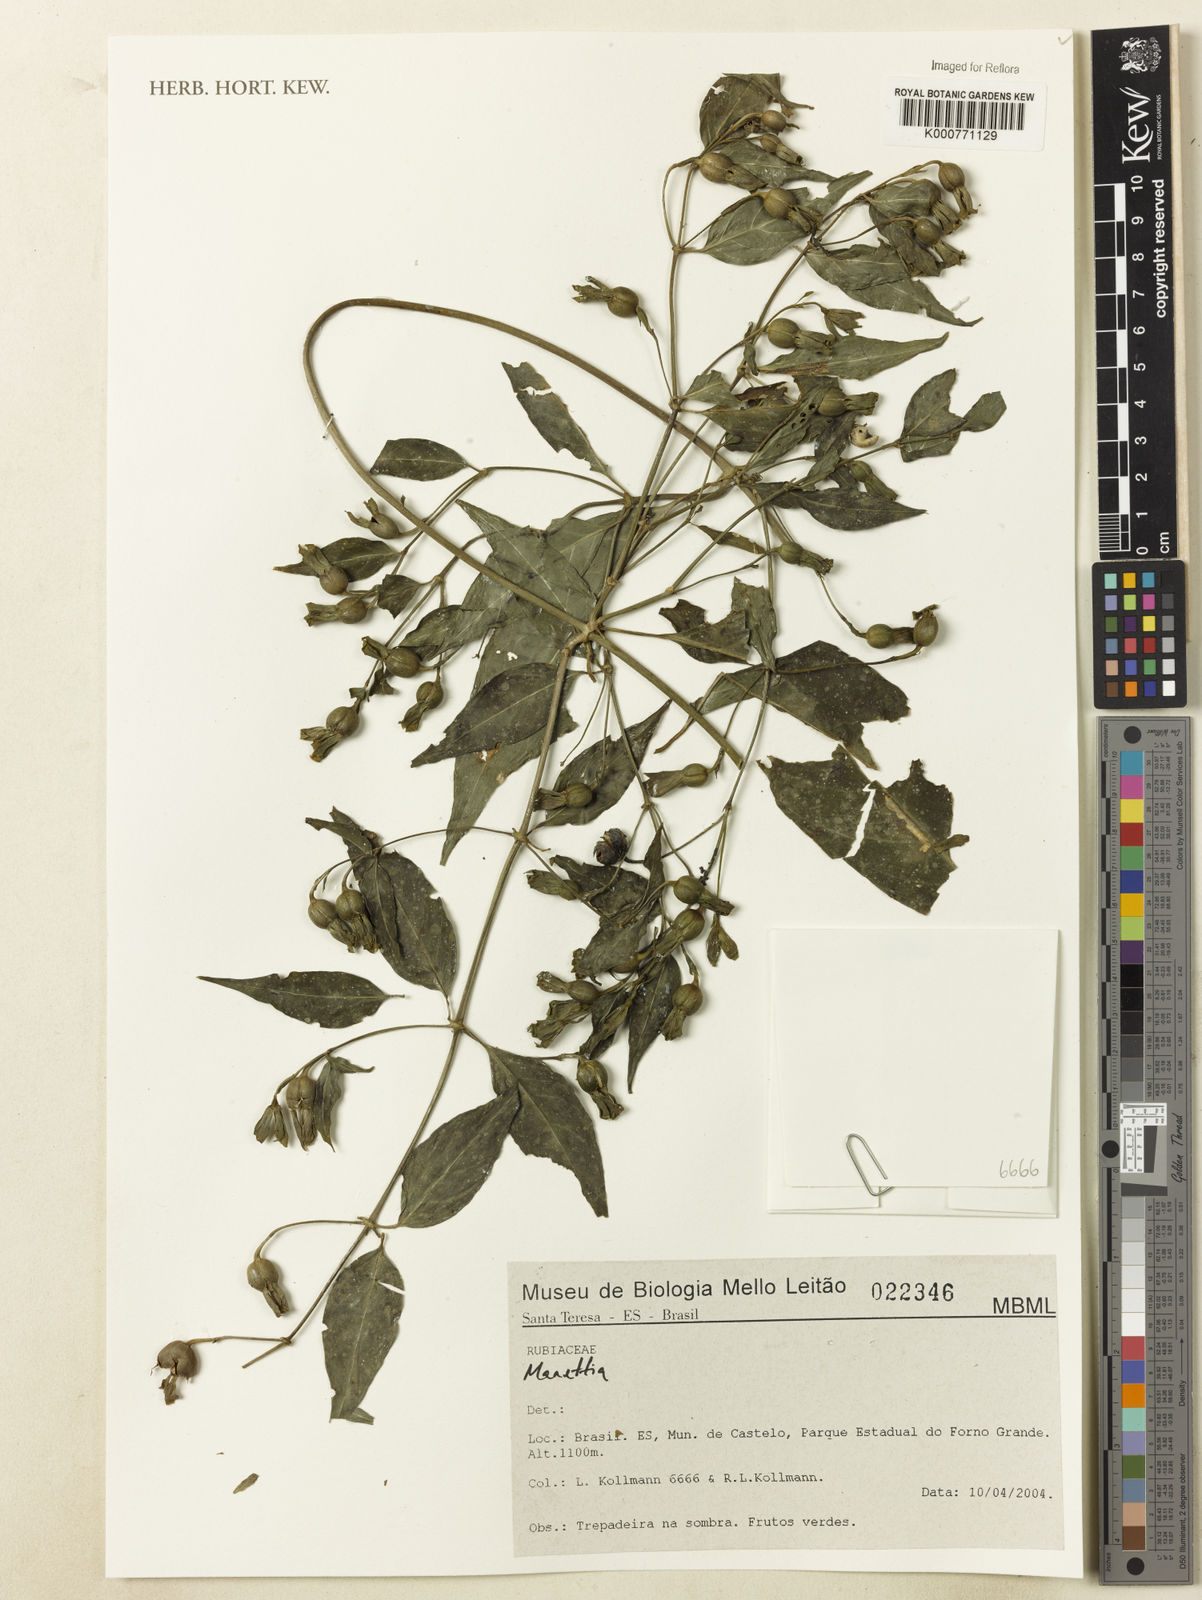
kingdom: Plantae
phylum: Tracheophyta
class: Magnoliopsida
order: Gentianales
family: Rubiaceae
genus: Manettia
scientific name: Manettia
